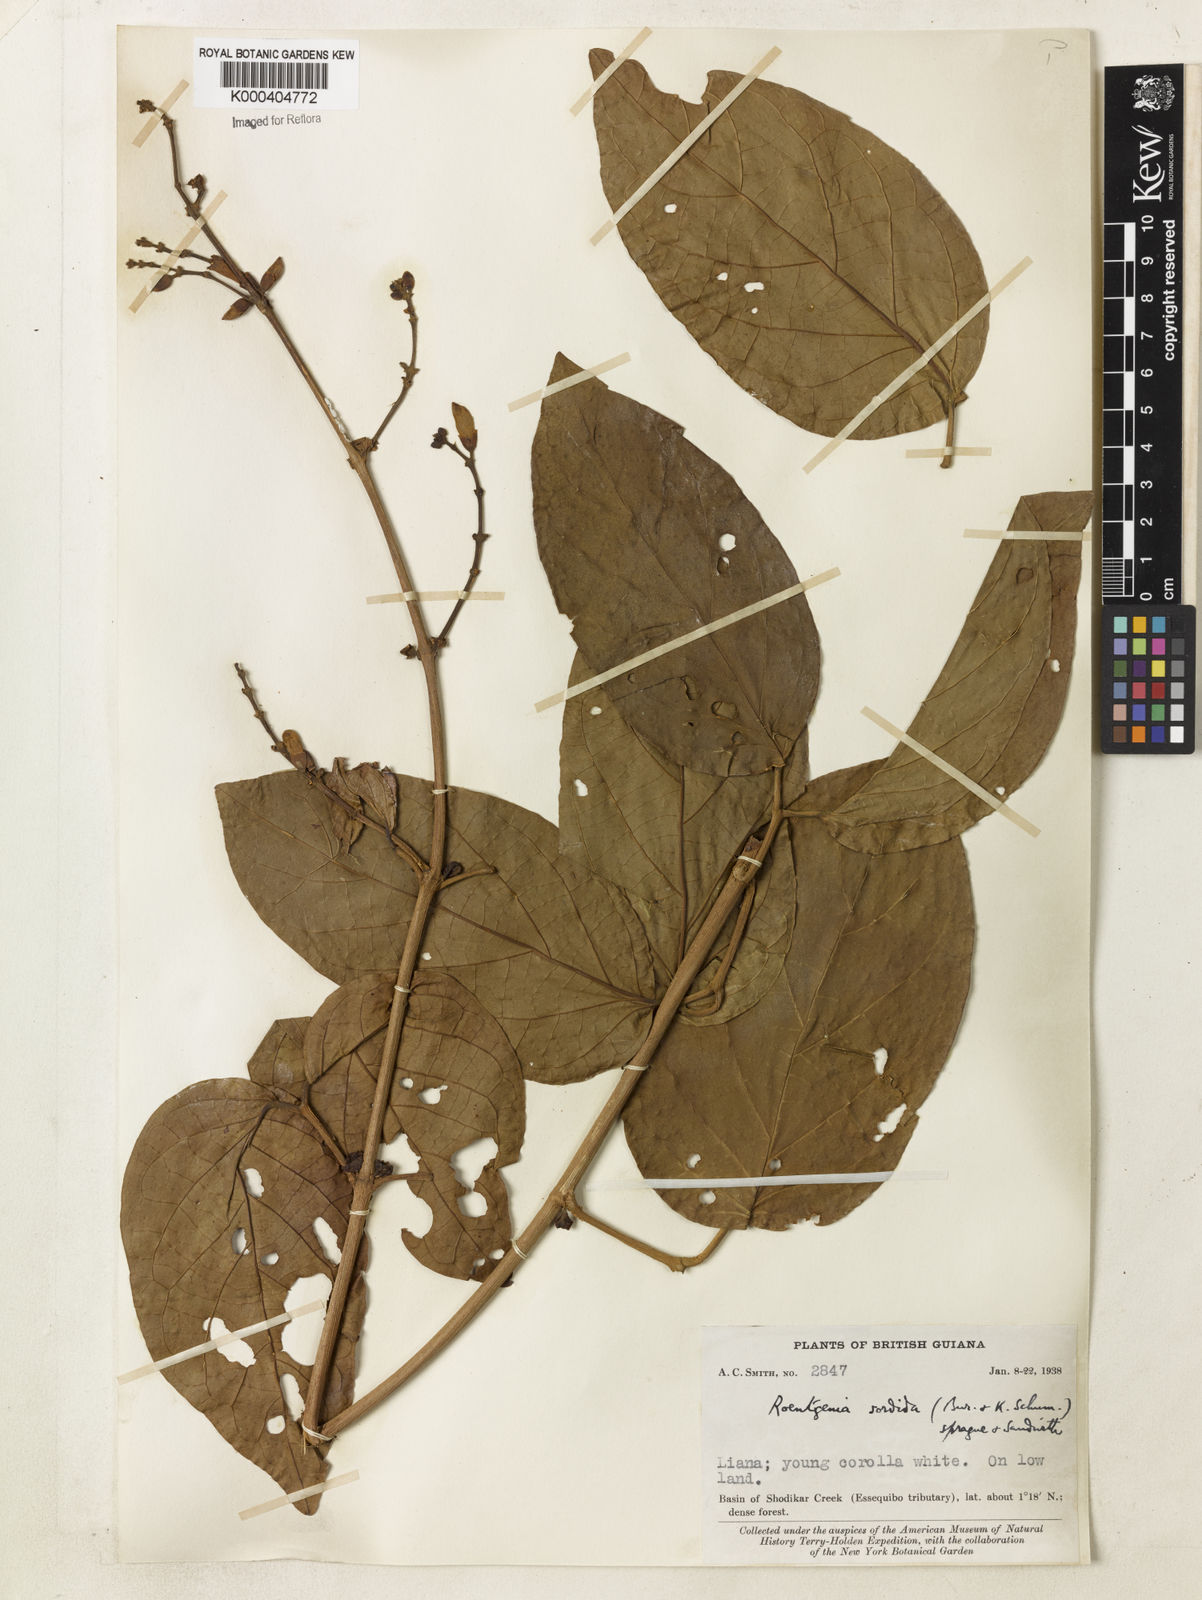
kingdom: Plantae
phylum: Tracheophyta
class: Magnoliopsida
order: Lamiales
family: Bignoniaceae
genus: Bignonia
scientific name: Bignonia sordida
